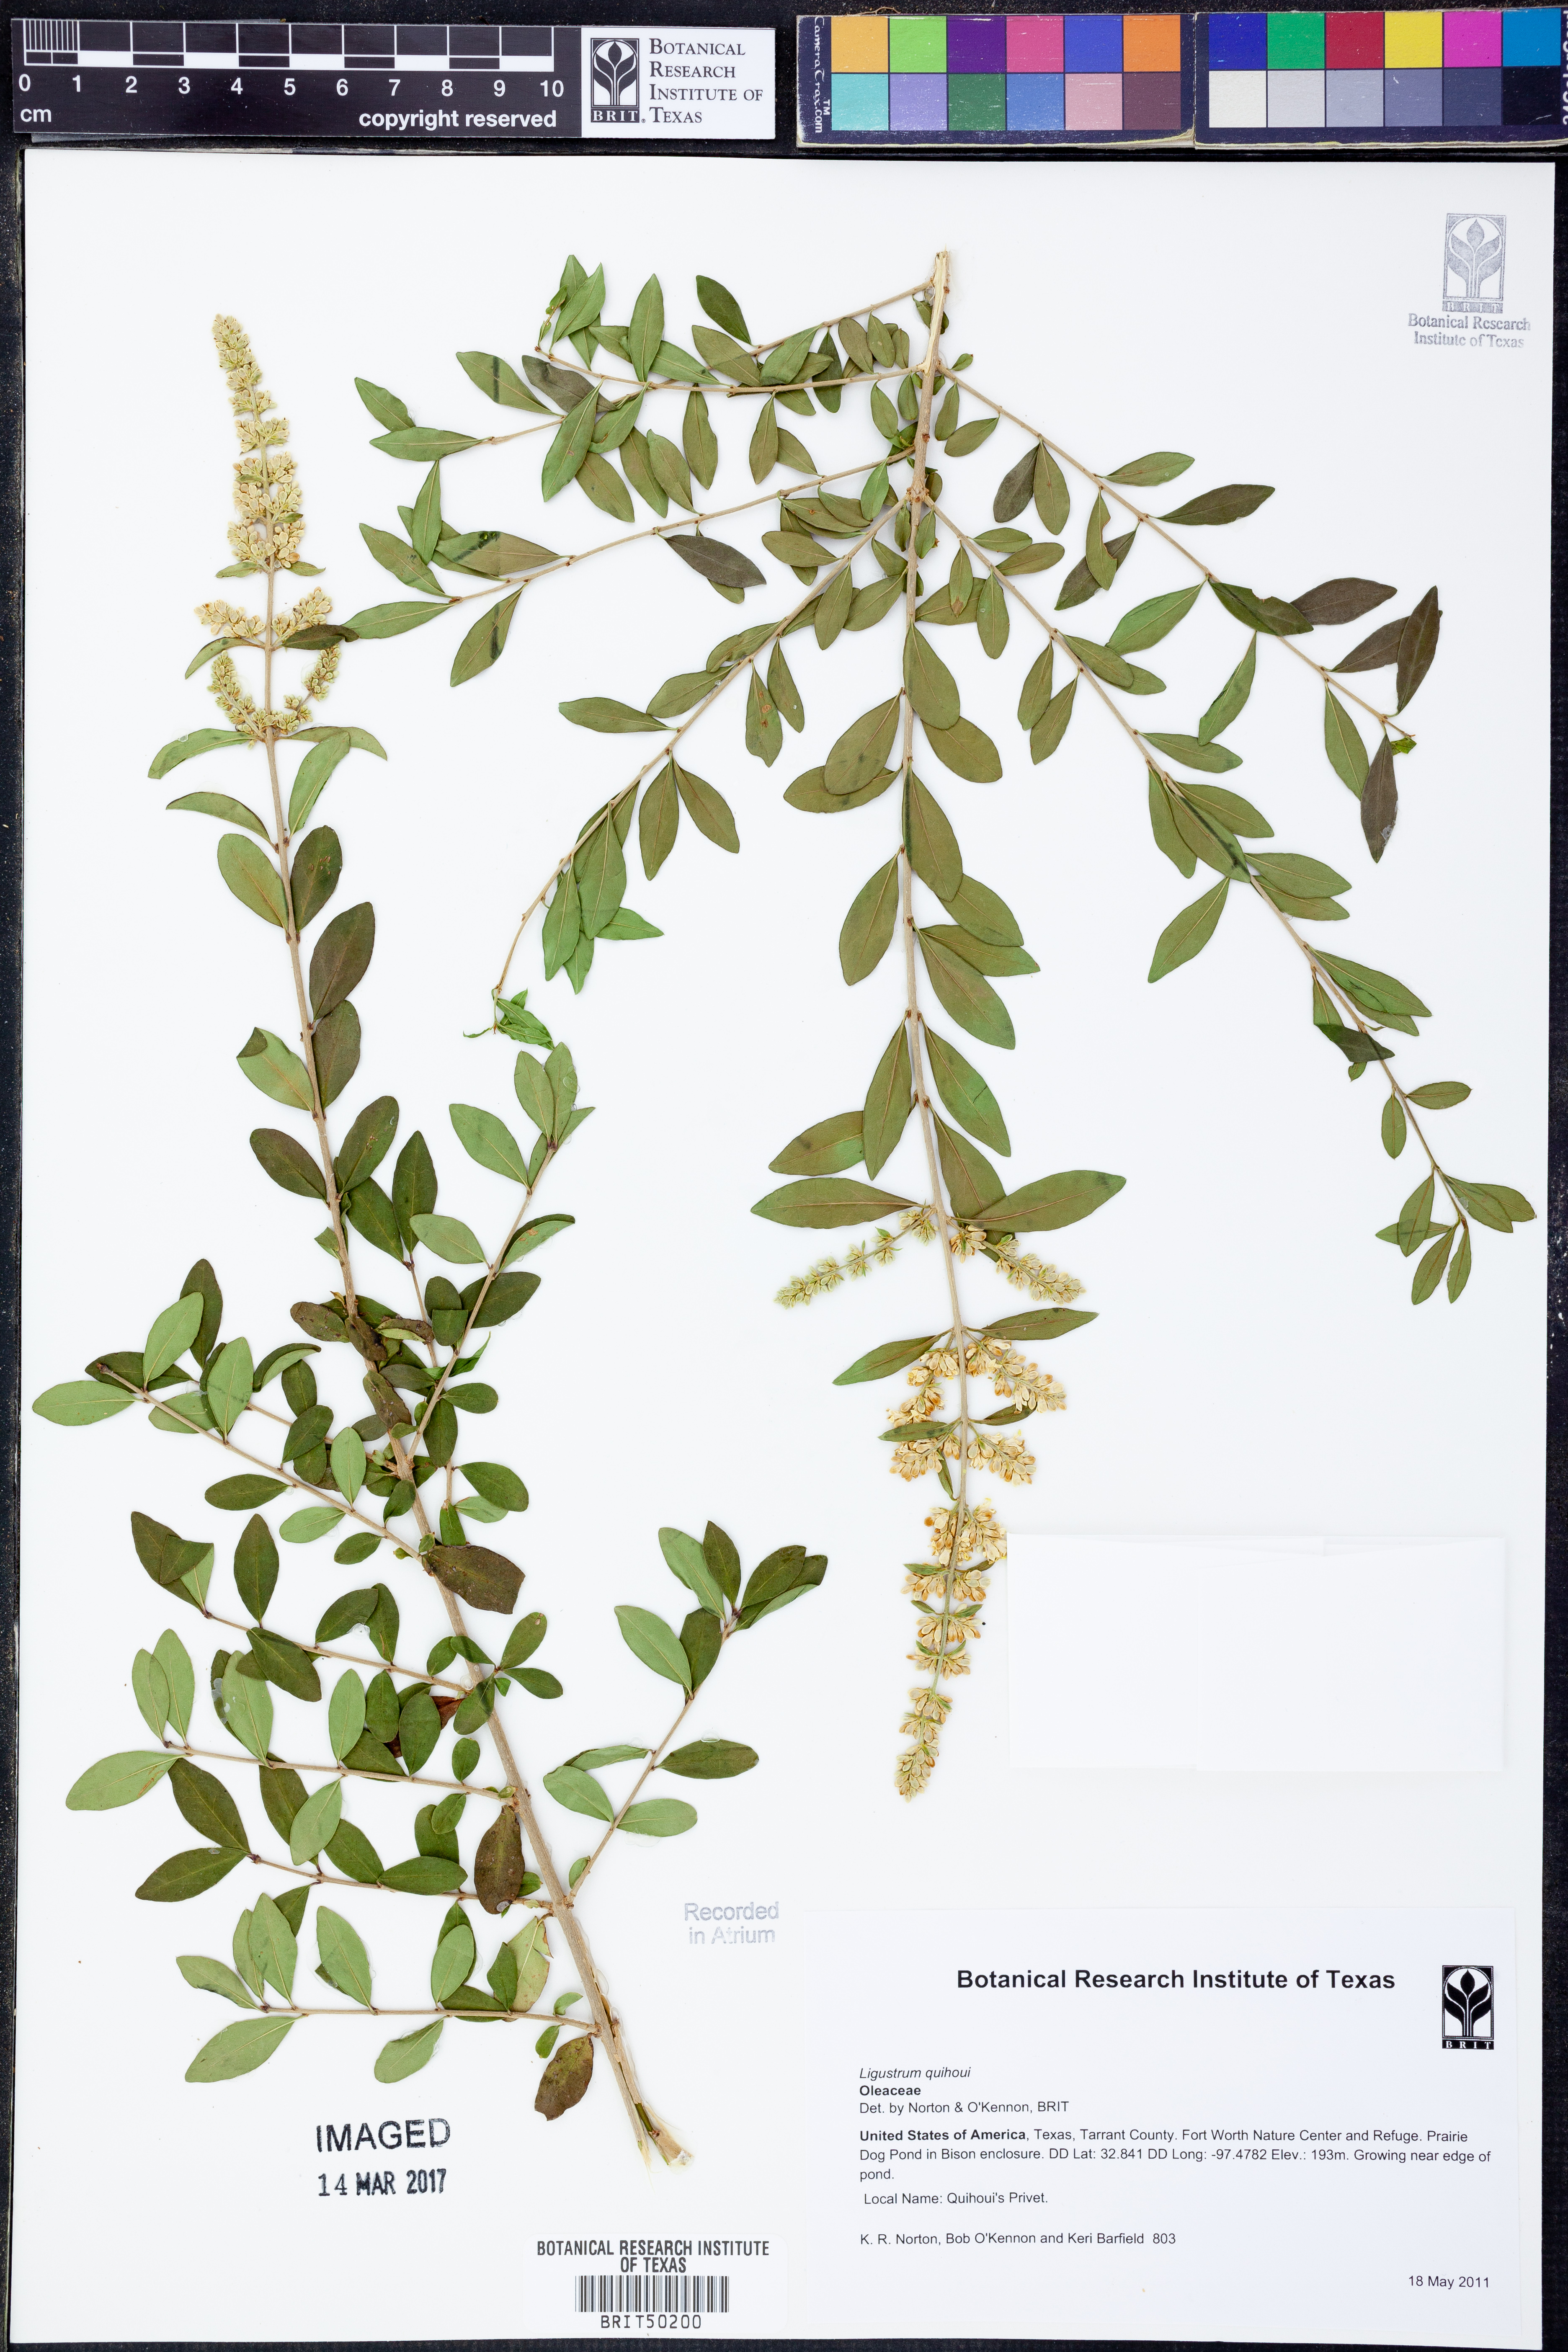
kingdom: Plantae
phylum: Tracheophyta
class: Magnoliopsida
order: Lamiales
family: Oleaceae
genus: Ligustrum
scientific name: Ligustrum quihoui
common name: Waxyleaf privet
